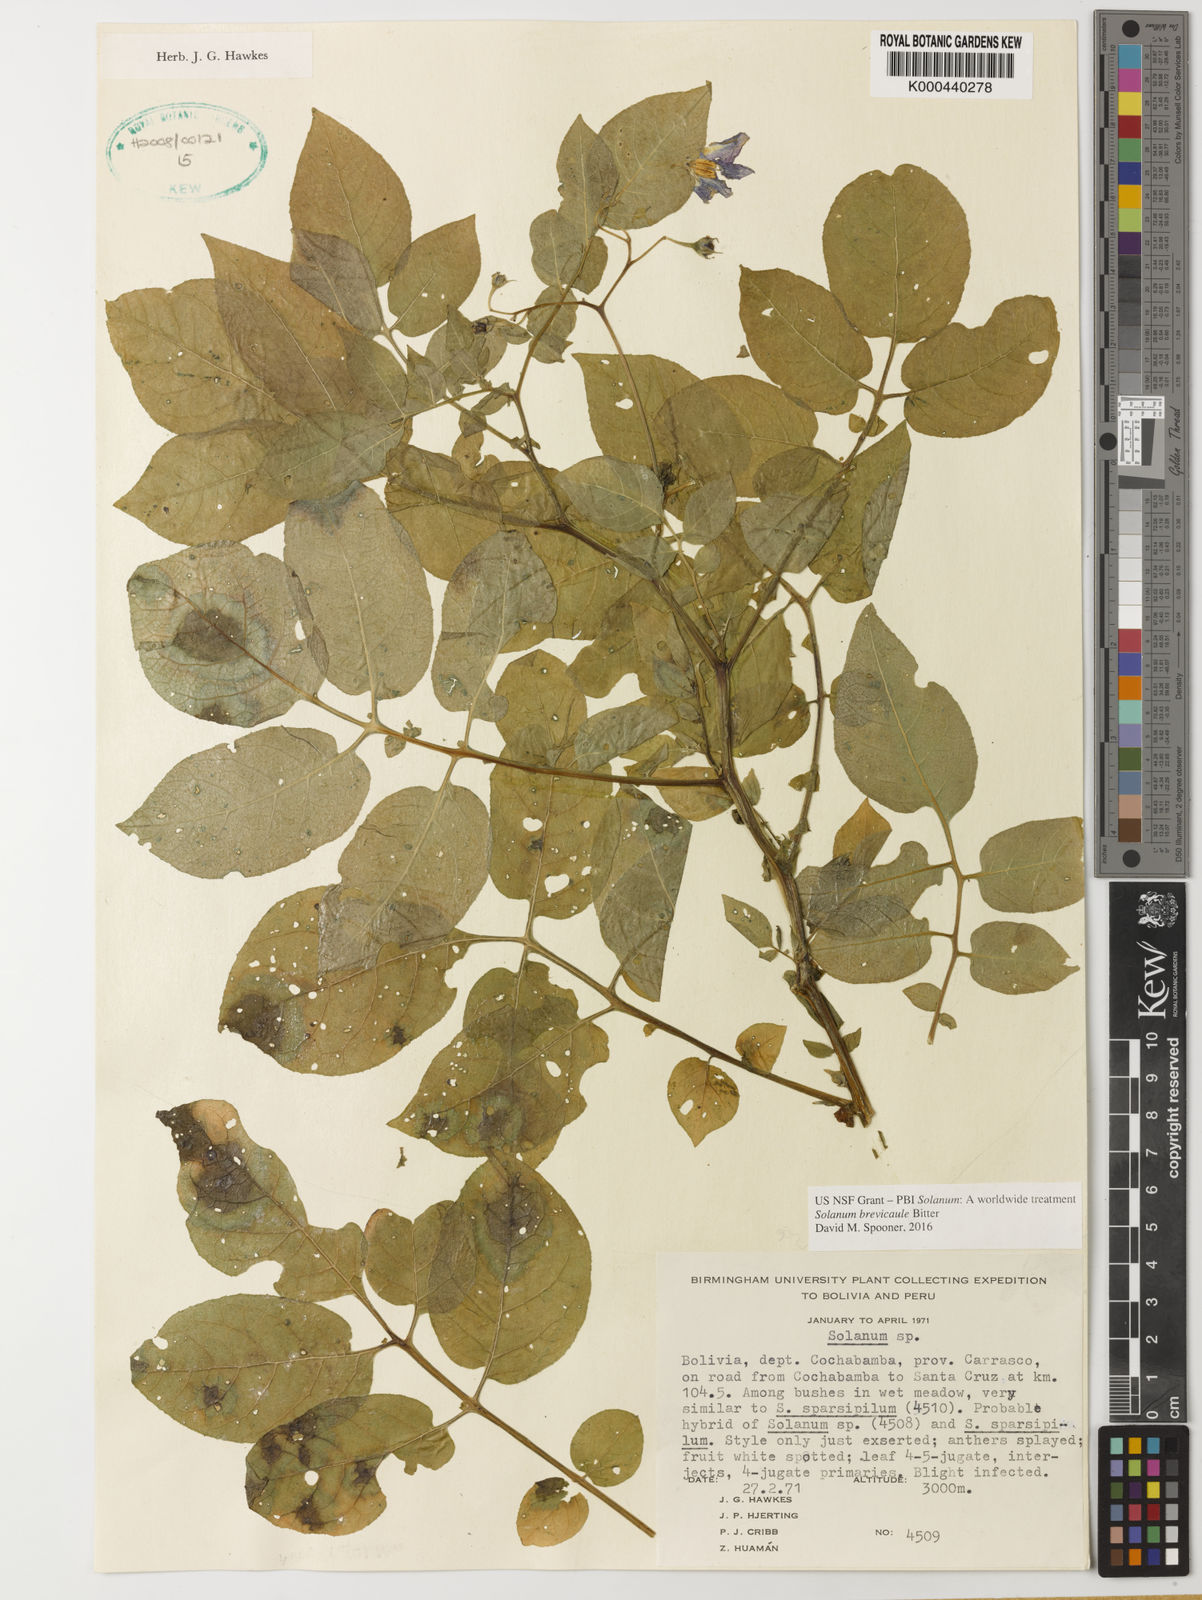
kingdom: Plantae
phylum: Tracheophyta
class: Magnoliopsida
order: Solanales
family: Solanaceae
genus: Solanum
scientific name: Solanum brevicaule
